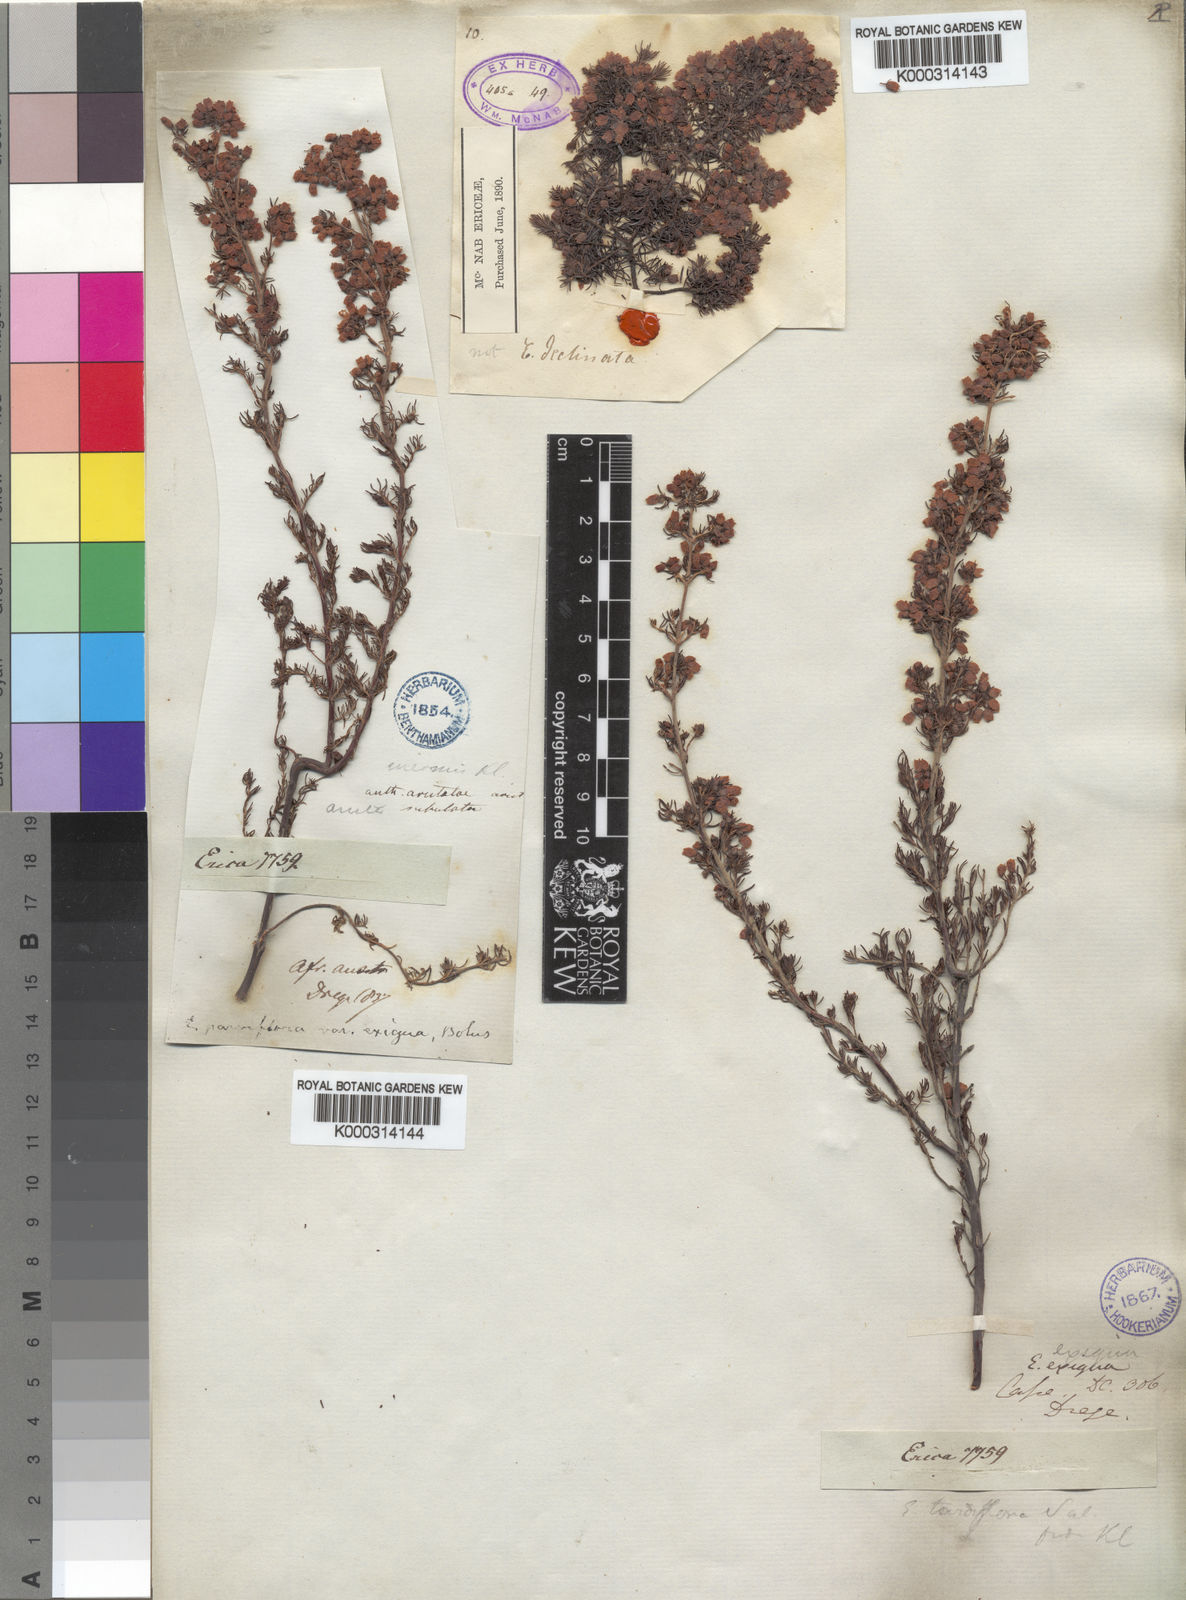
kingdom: Plantae
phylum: Tracheophyta
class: Magnoliopsida
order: Ericales
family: Ericaceae
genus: Erica
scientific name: Erica parviflora
